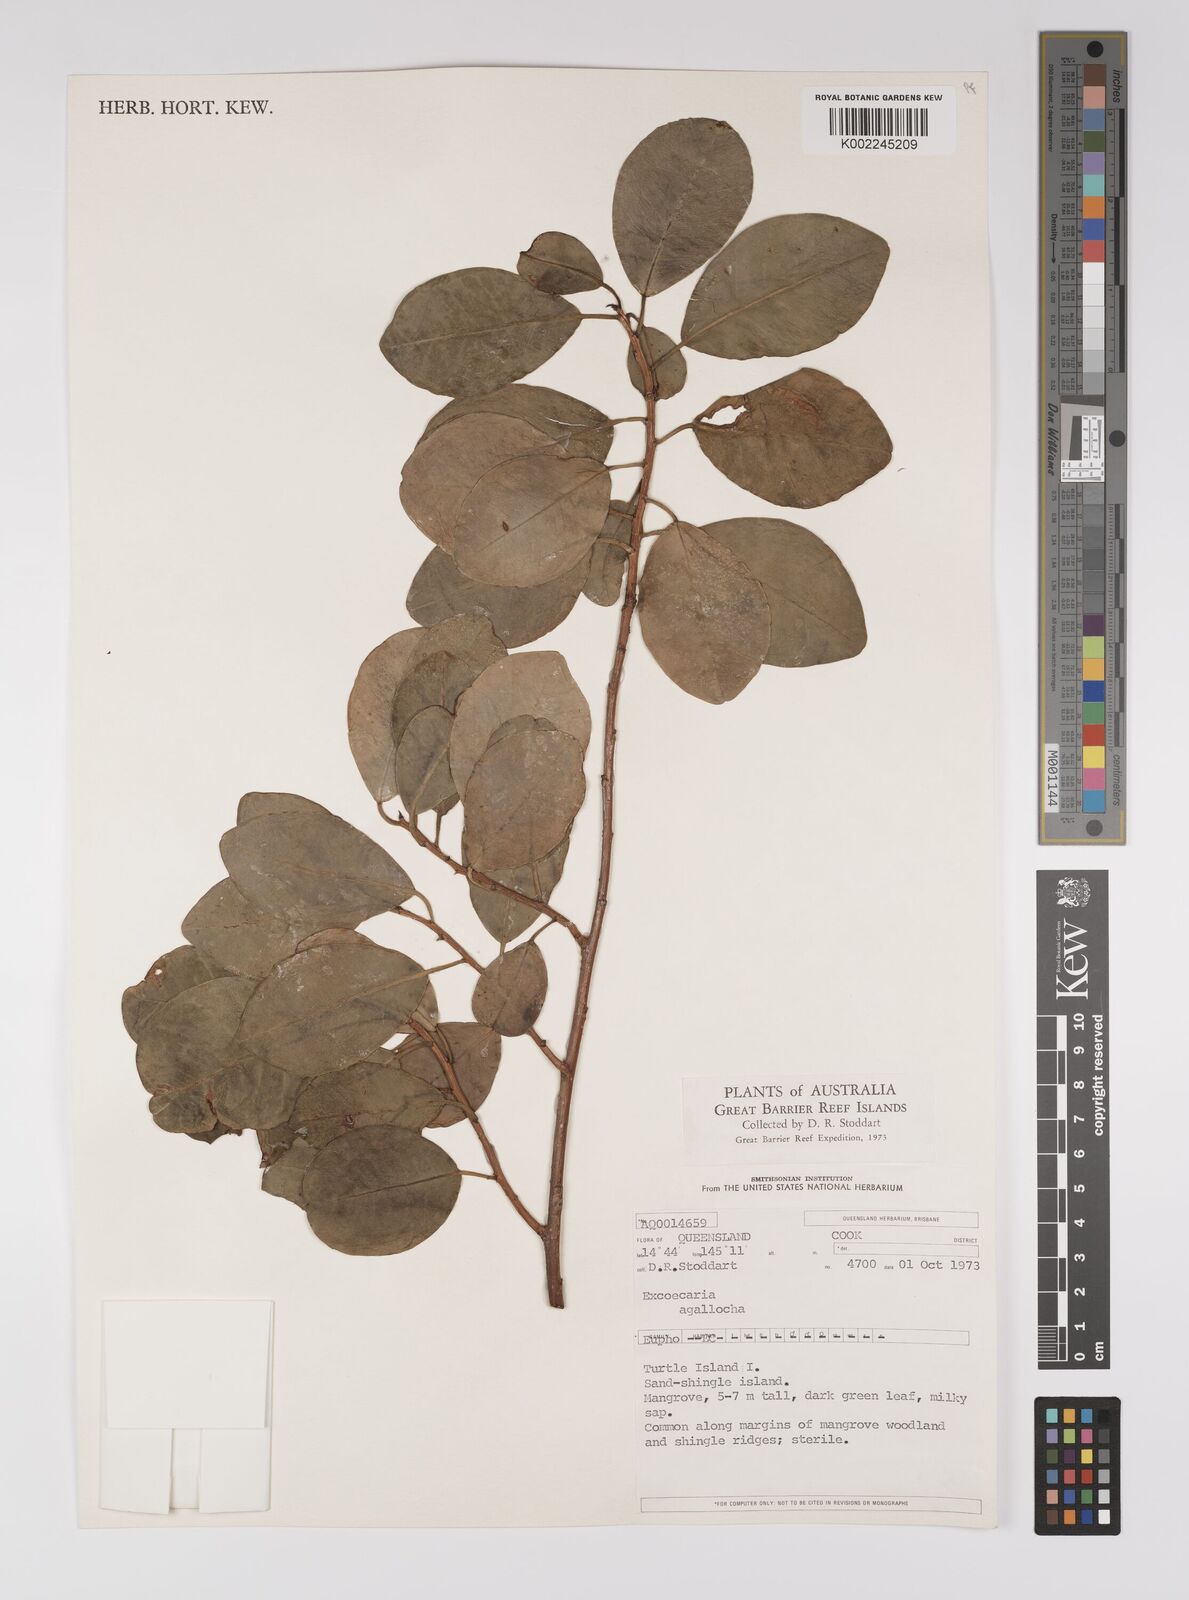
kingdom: Plantae
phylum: Tracheophyta
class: Magnoliopsida
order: Malpighiales
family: Euphorbiaceae
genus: Excoecaria
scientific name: Excoecaria agallocha
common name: River poisontree
